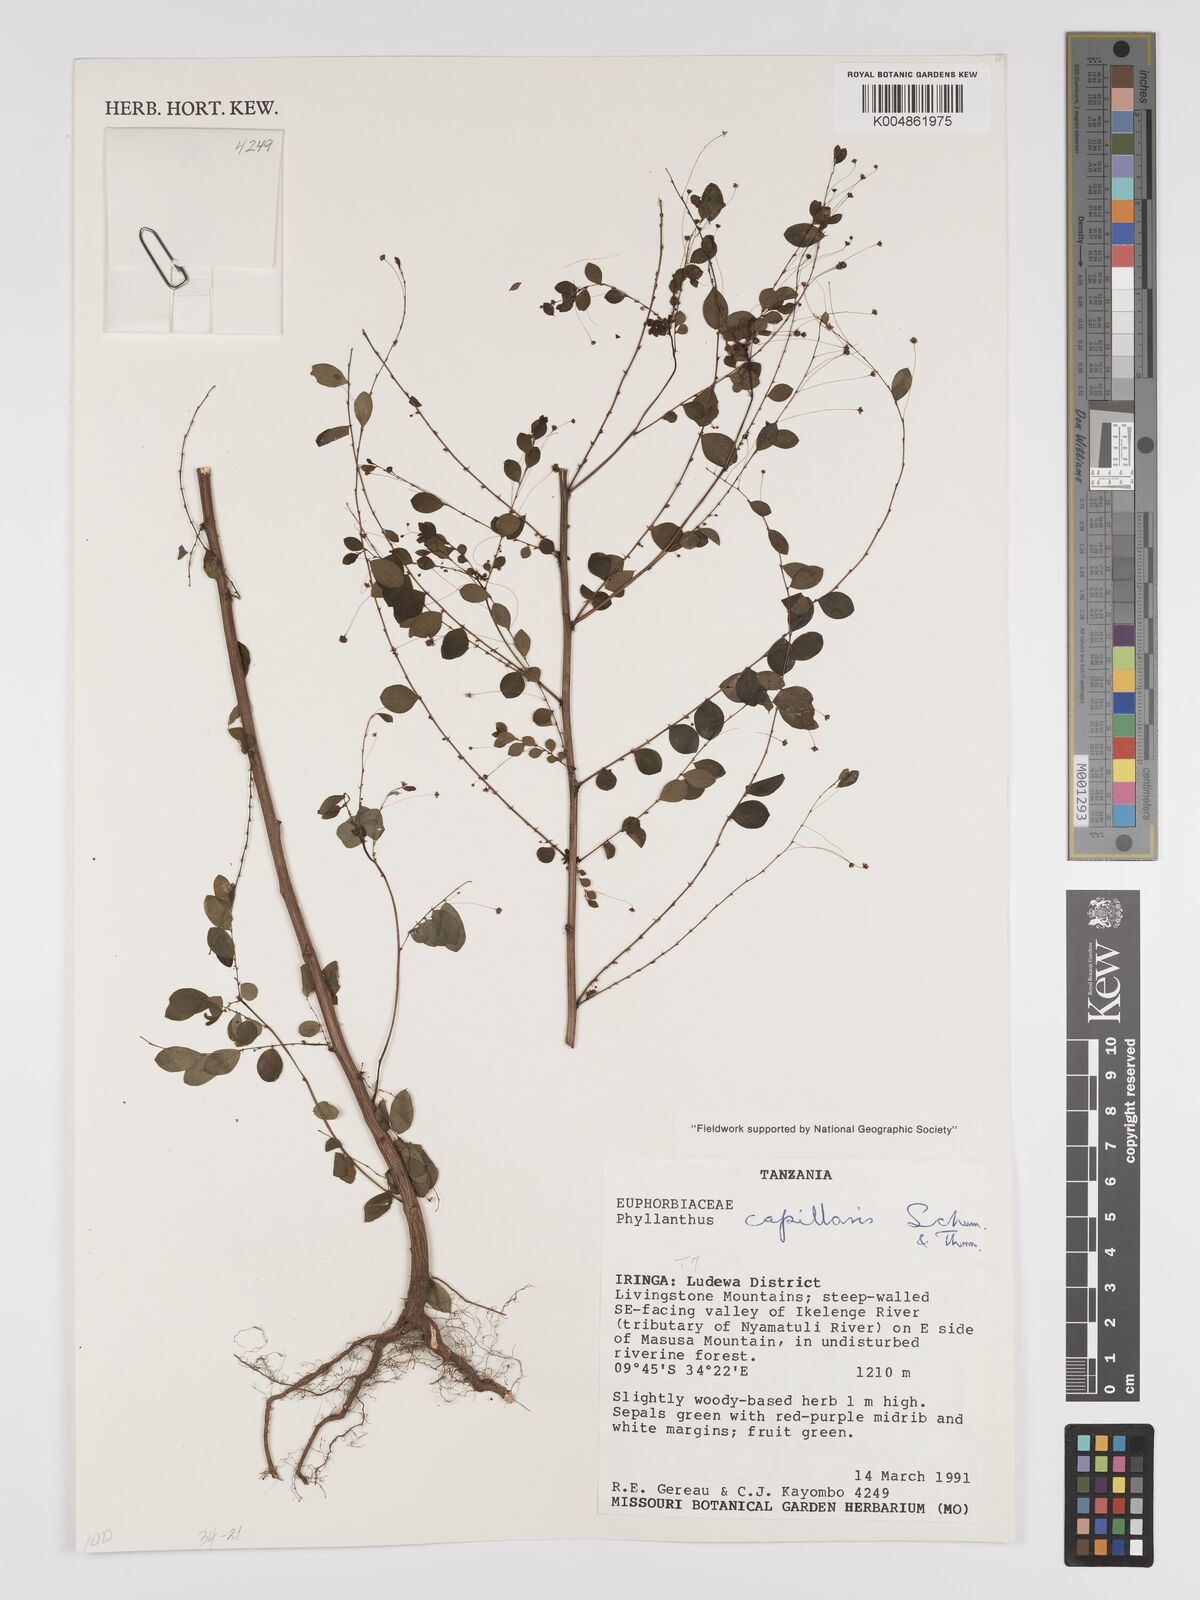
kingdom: Plantae
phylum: Tracheophyta
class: Magnoliopsida
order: Malpighiales
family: Phyllanthaceae
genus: Phyllanthus
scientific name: Phyllanthus nummulariifolius
